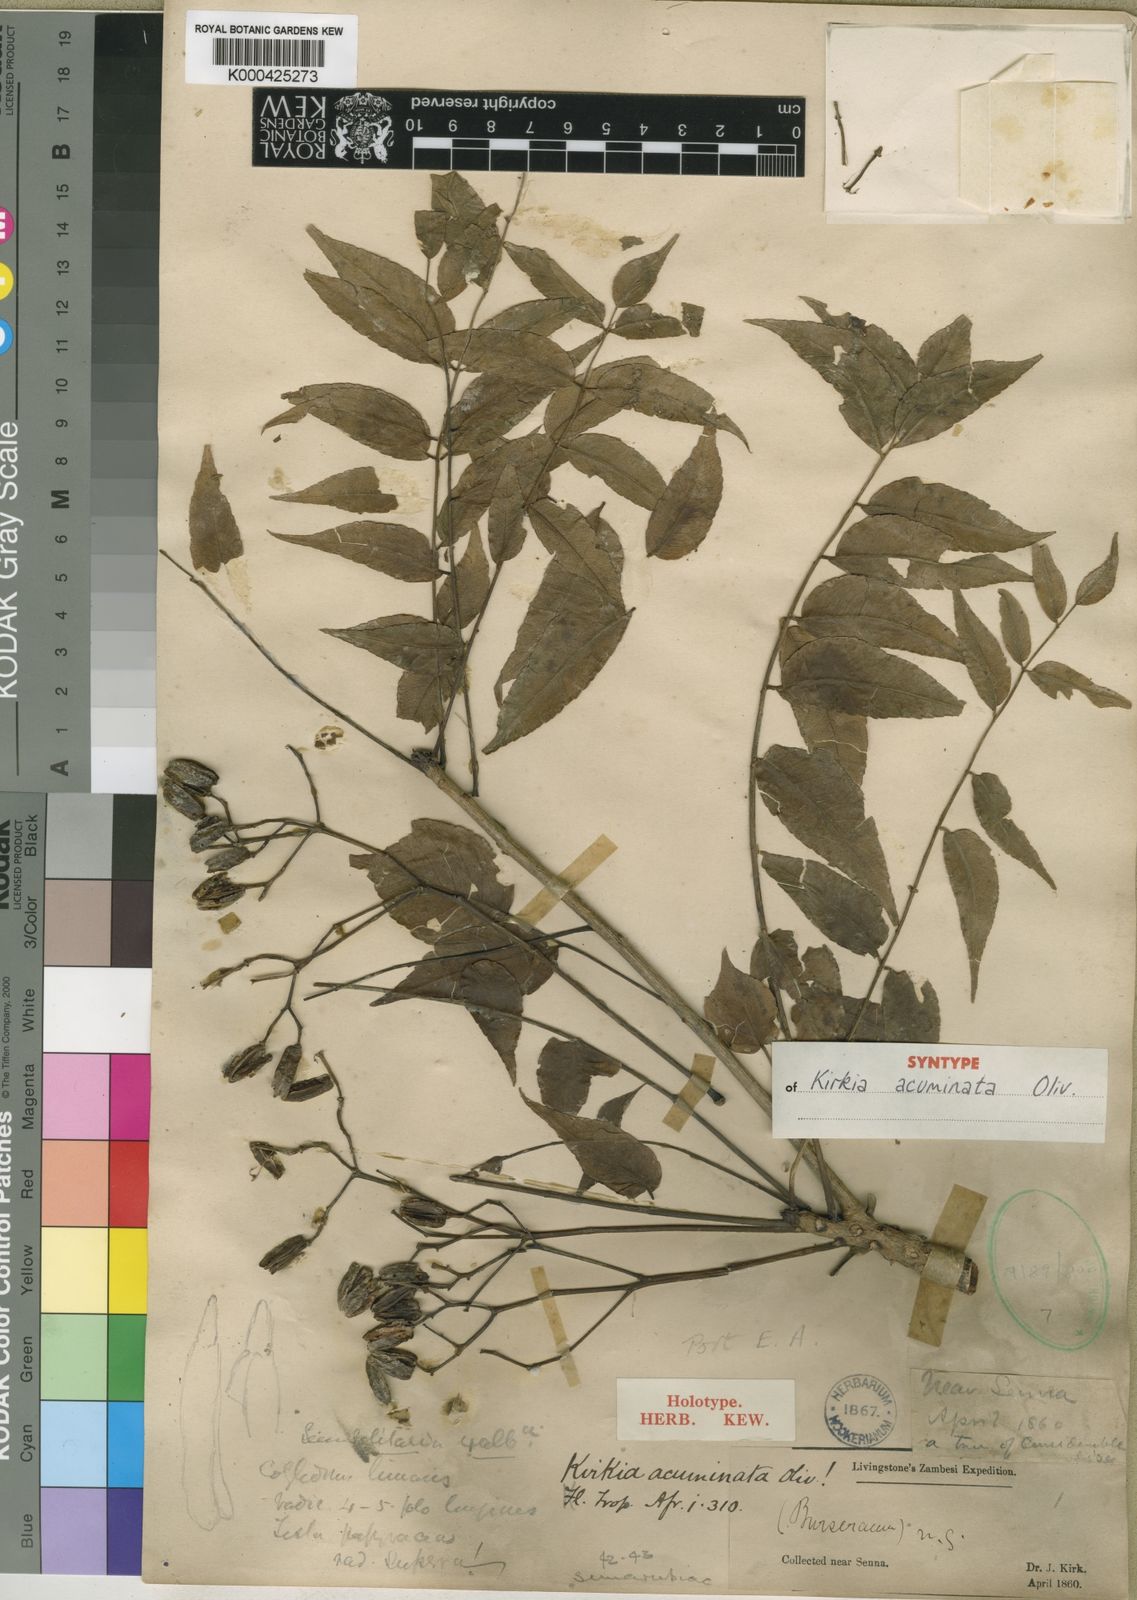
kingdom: Plantae
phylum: Tracheophyta
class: Magnoliopsida
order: Sapindales
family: Kirkiaceae
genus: Kirkia
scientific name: Kirkia acuminata
